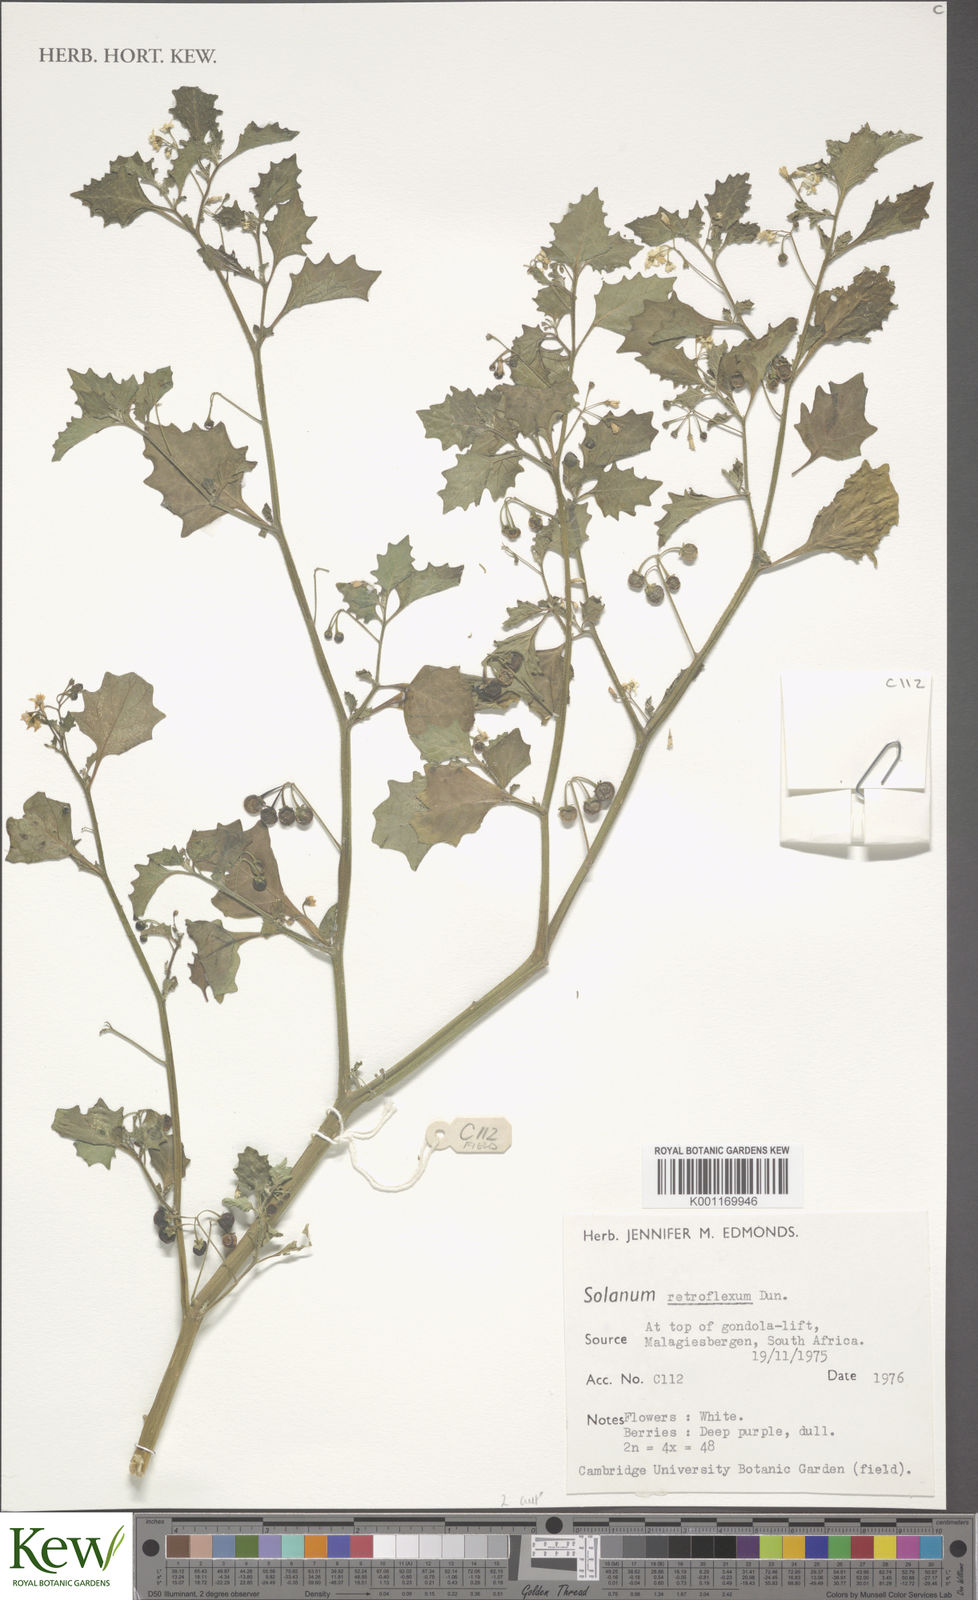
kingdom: Plantae
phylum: Tracheophyta
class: Magnoliopsida
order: Solanales
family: Solanaceae
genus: Solanum
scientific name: Solanum retroflexum
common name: Wonderberry
